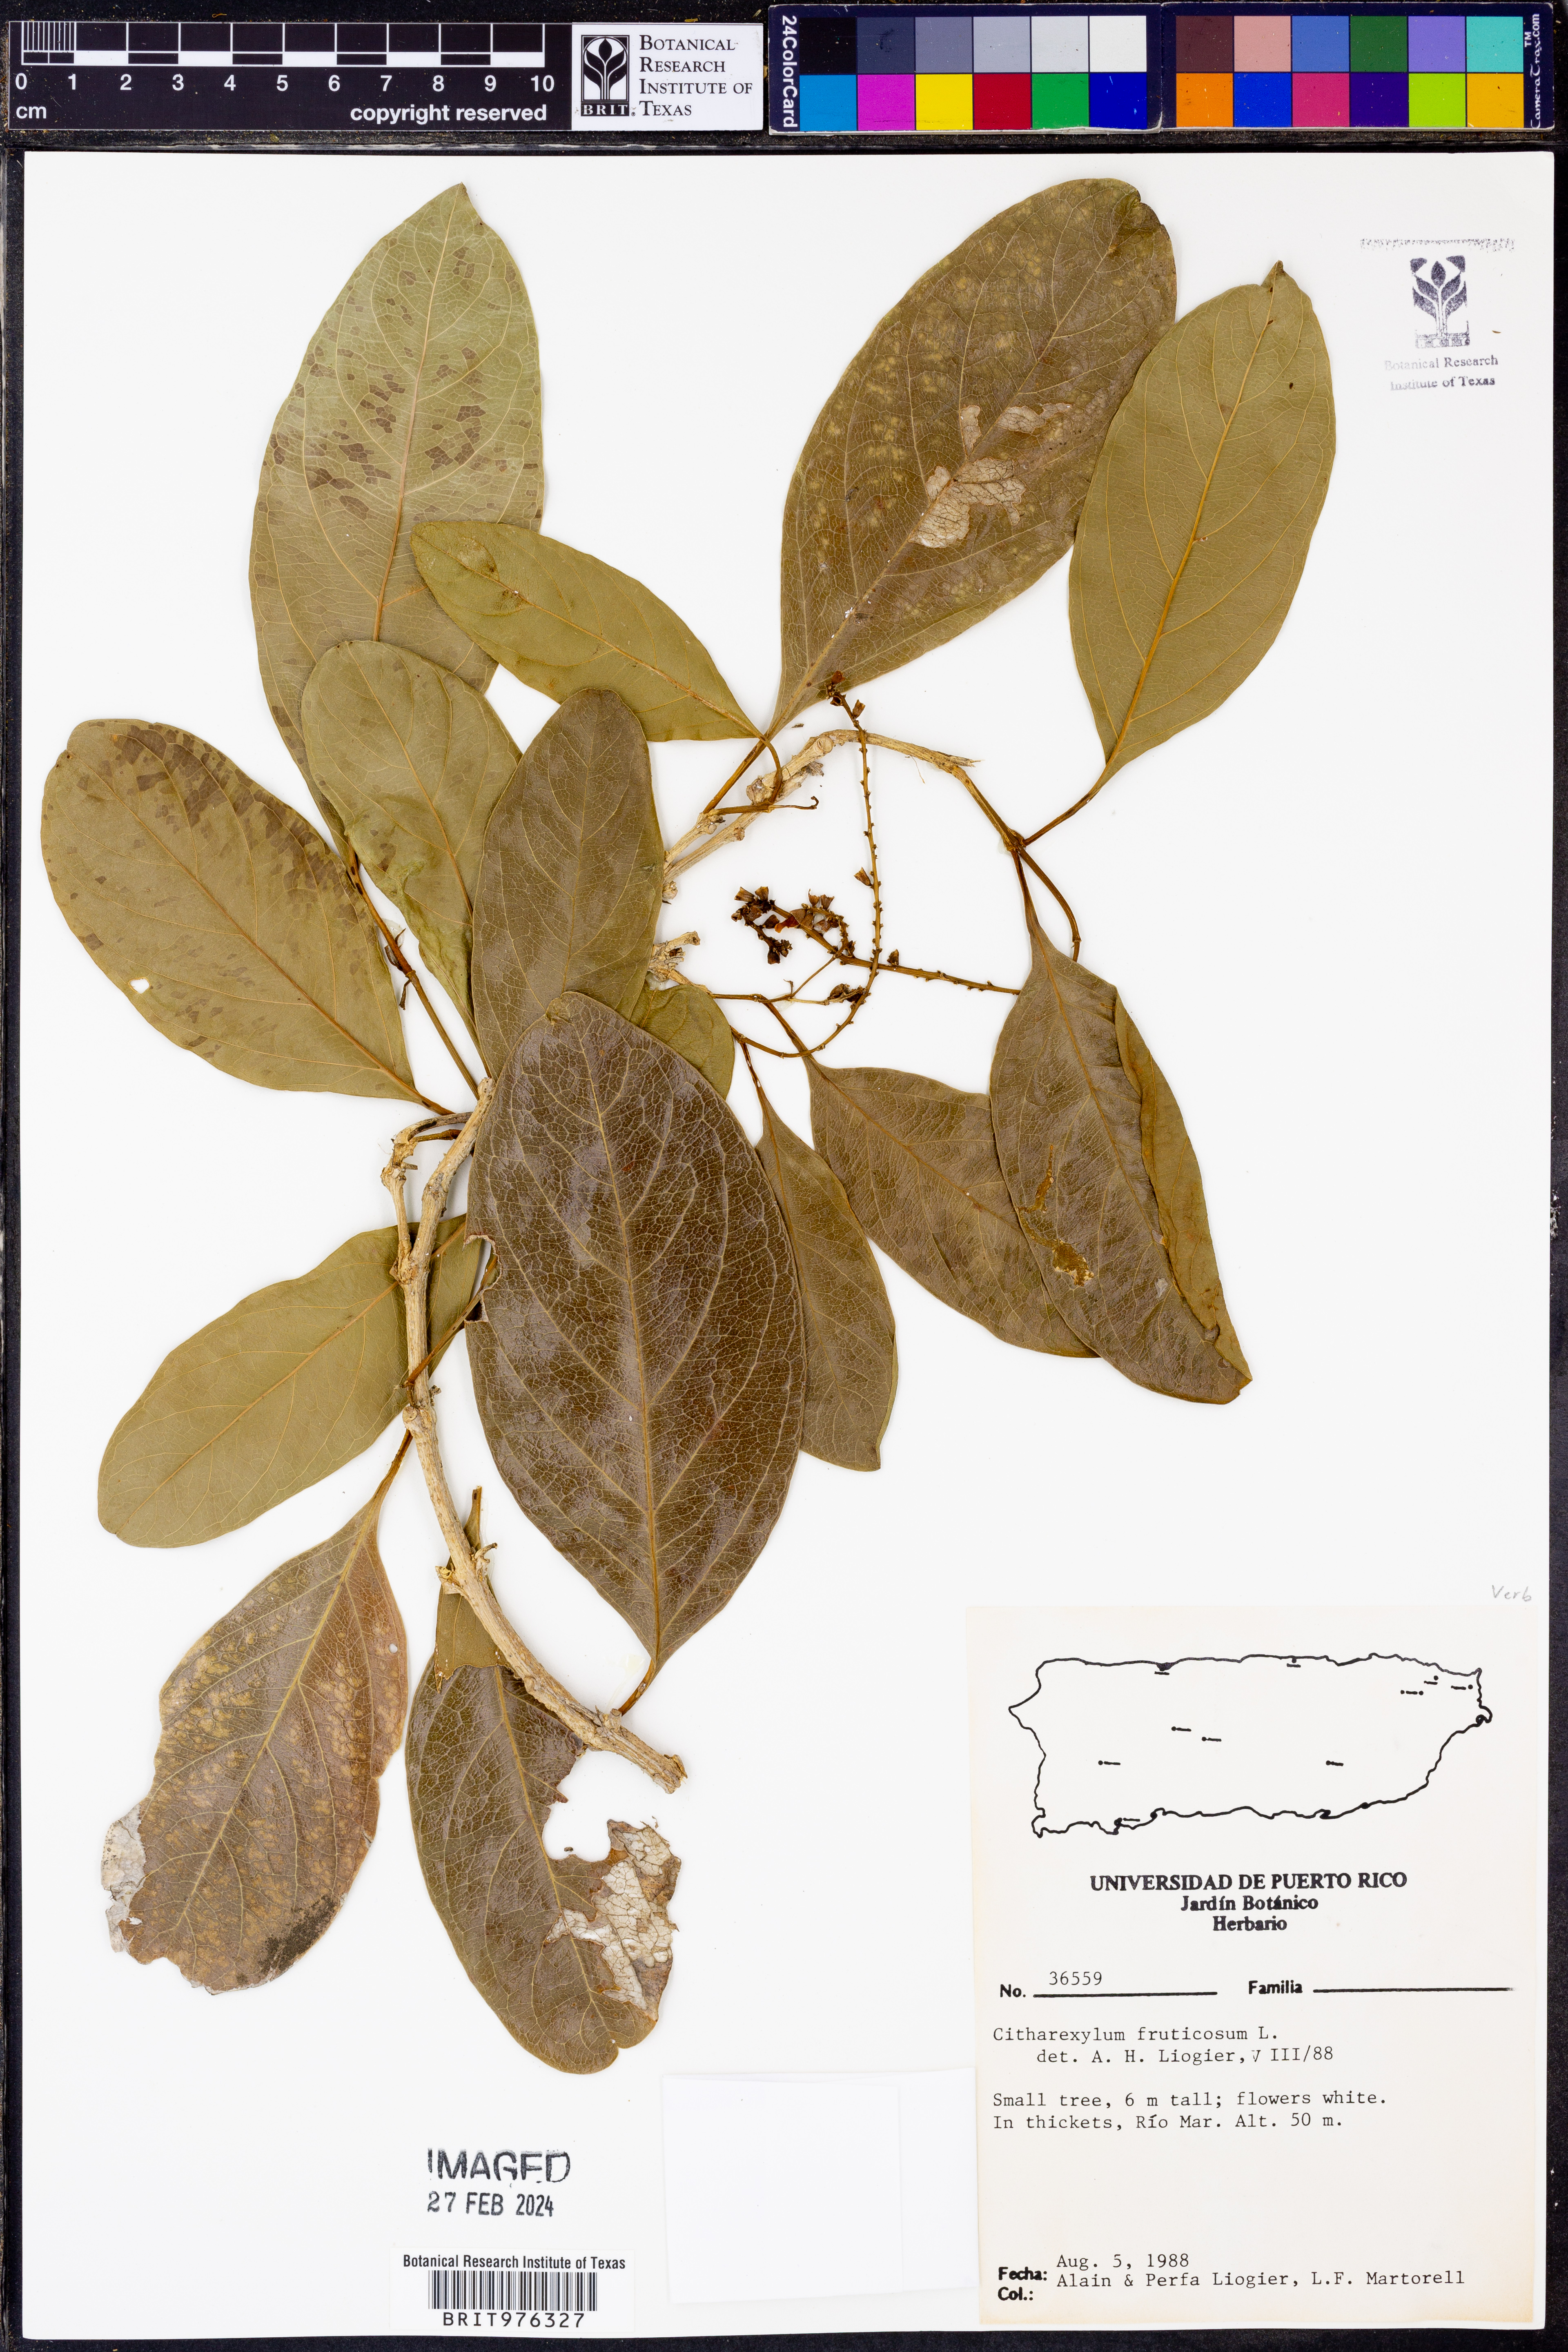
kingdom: Plantae
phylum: Tracheophyta
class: Magnoliopsida
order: Lamiales
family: Verbenaceae
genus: Citharexylum
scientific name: Citharexylum
